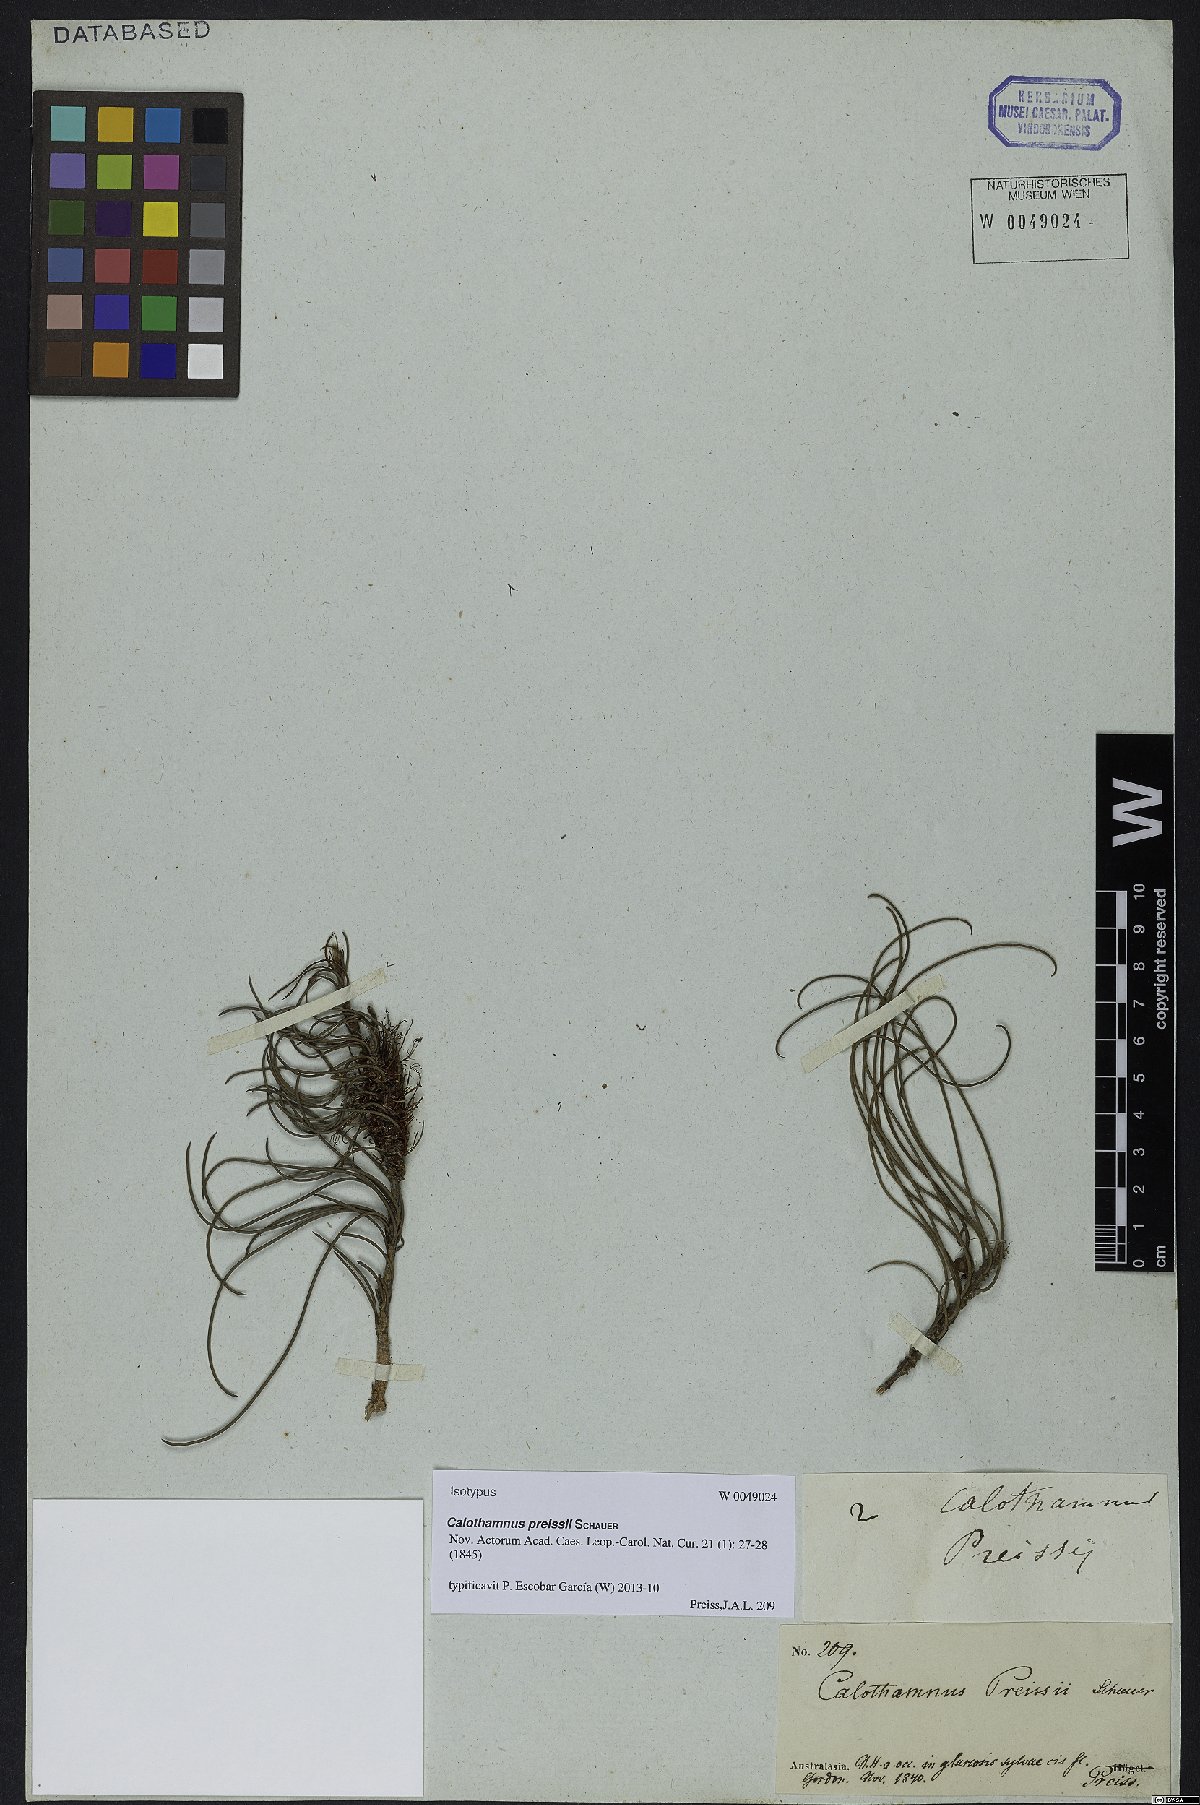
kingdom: Plantae
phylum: Tracheophyta
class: Magnoliopsida
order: Myrtales
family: Myrtaceae
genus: Melaleuca
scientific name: Melaleuca preissii
